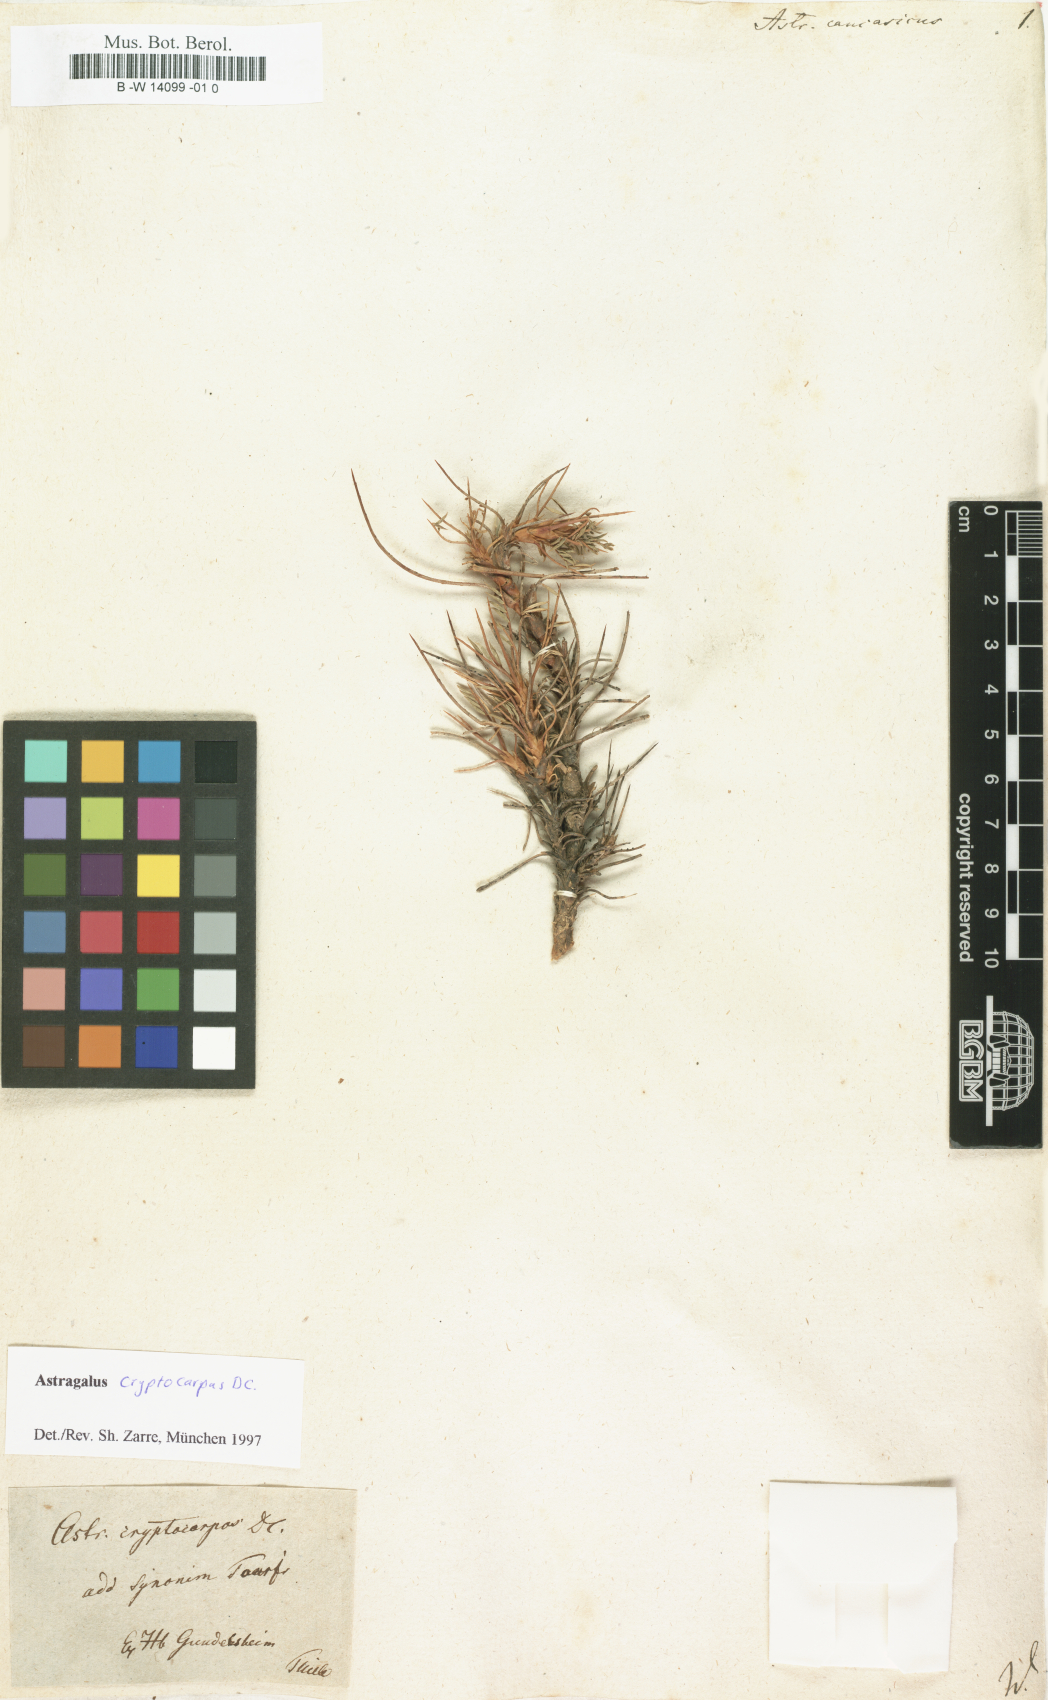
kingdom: Plantae
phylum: Tracheophyta
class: Magnoliopsida
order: Fabales
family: Fabaceae
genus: Astragalus
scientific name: Astragalus caucasicus
